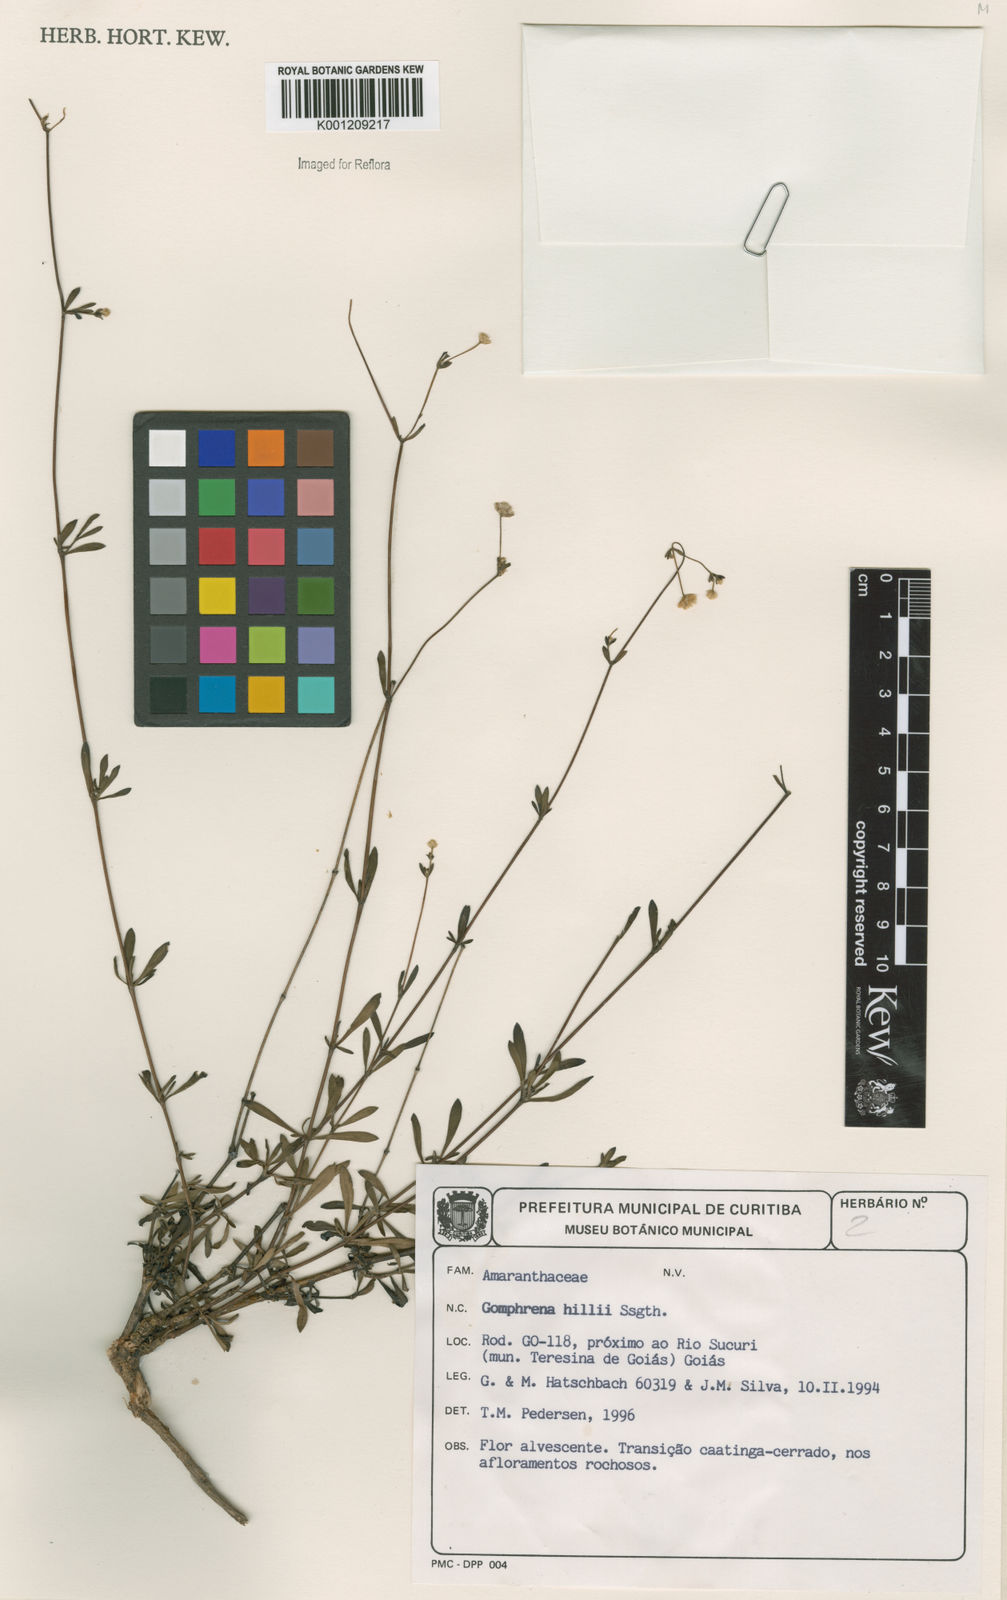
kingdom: Plantae
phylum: Tracheophyta
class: Magnoliopsida
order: Caryophyllales
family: Amaranthaceae
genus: Gomphrena
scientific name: Gomphrena hillii
